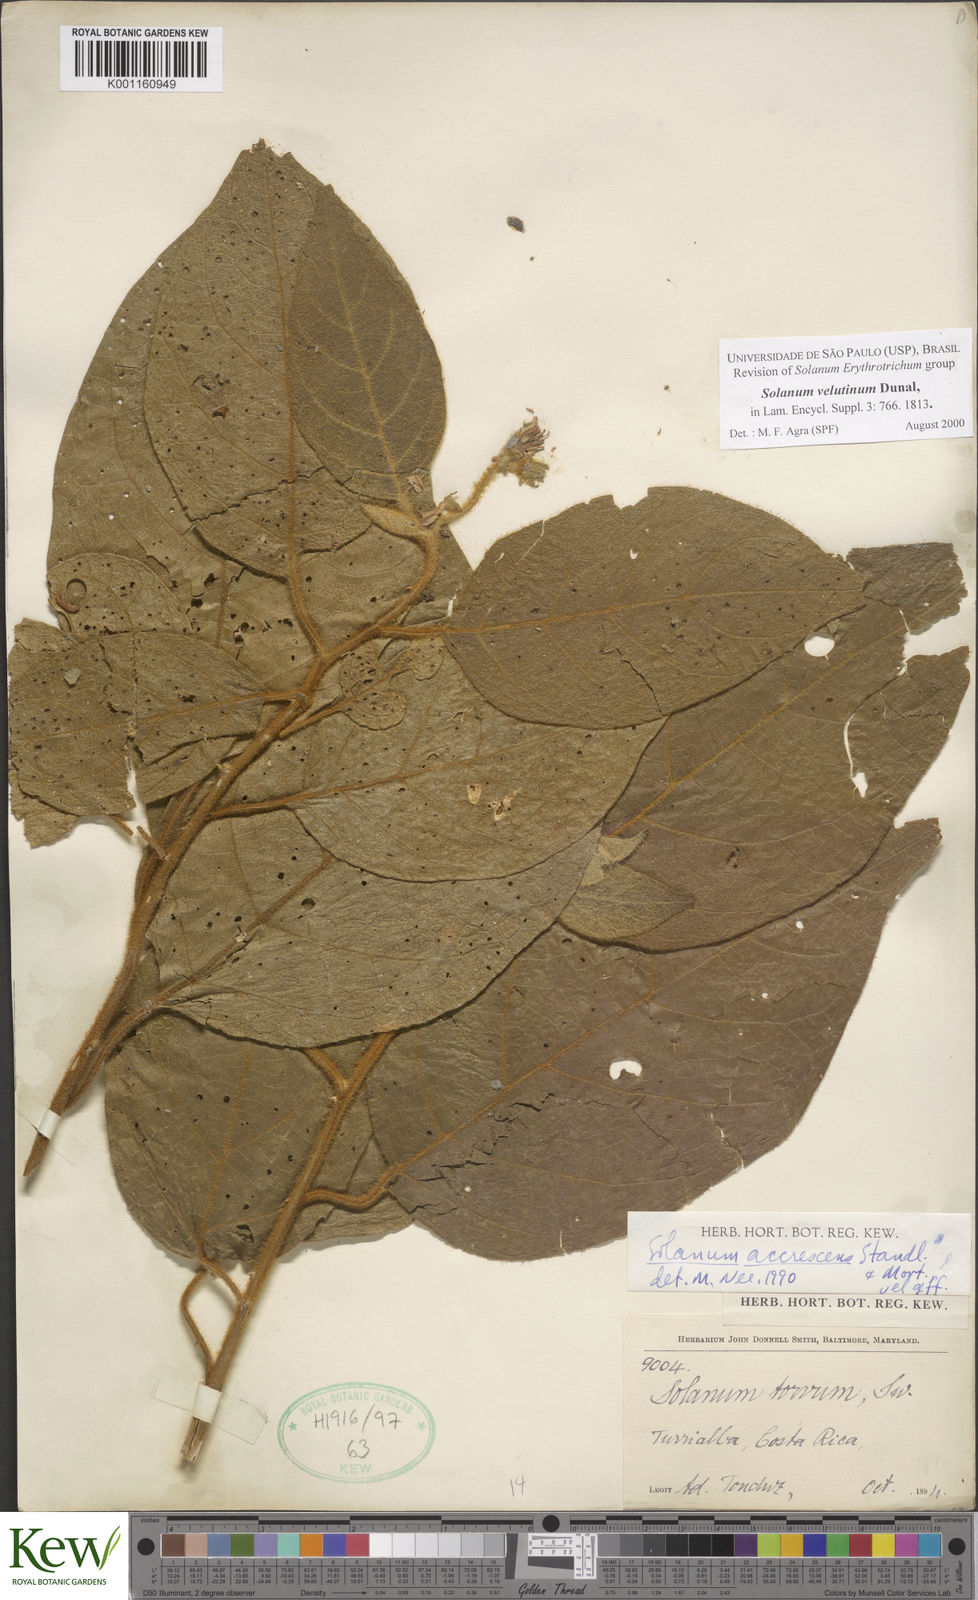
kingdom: Plantae
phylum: Tracheophyta
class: Magnoliopsida
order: Solanales
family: Solanaceae
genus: Solanum
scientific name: Solanum velutinum
